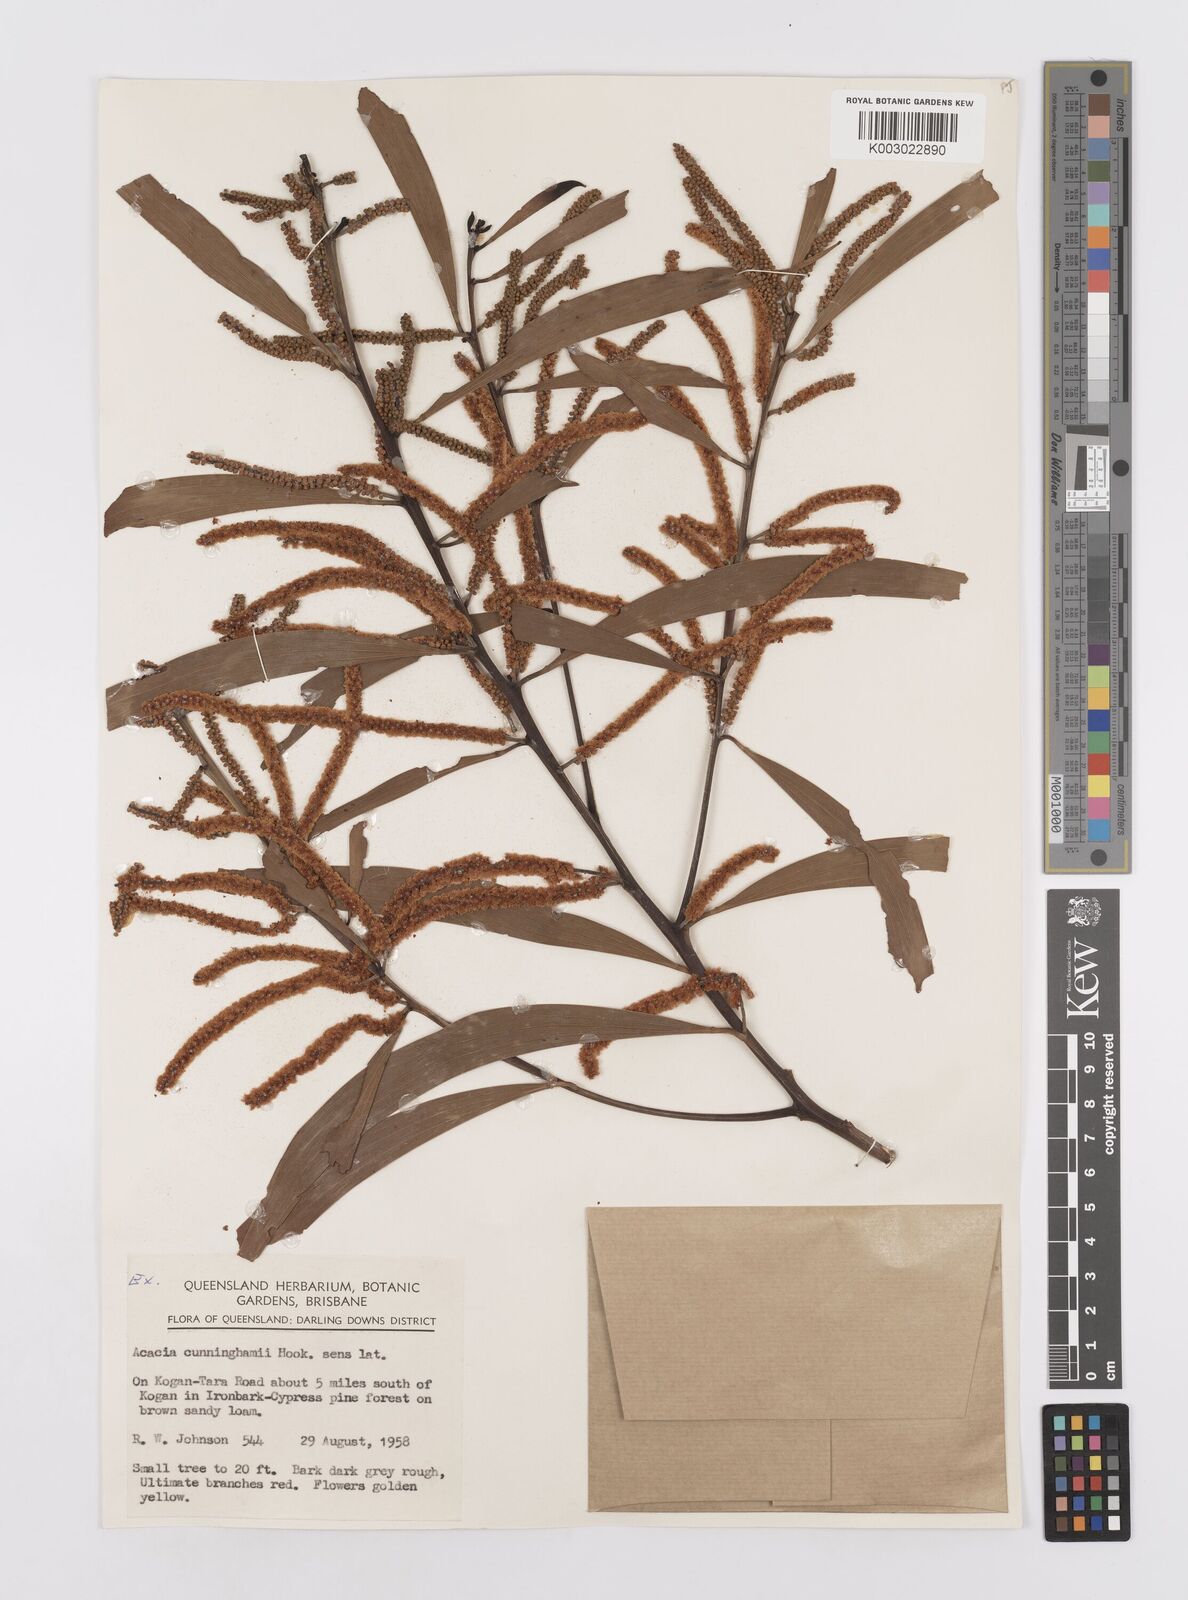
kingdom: Plantae
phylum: Tracheophyta
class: Magnoliopsida
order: Fabales
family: Fabaceae
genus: Acacia
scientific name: Acacia longispicata
